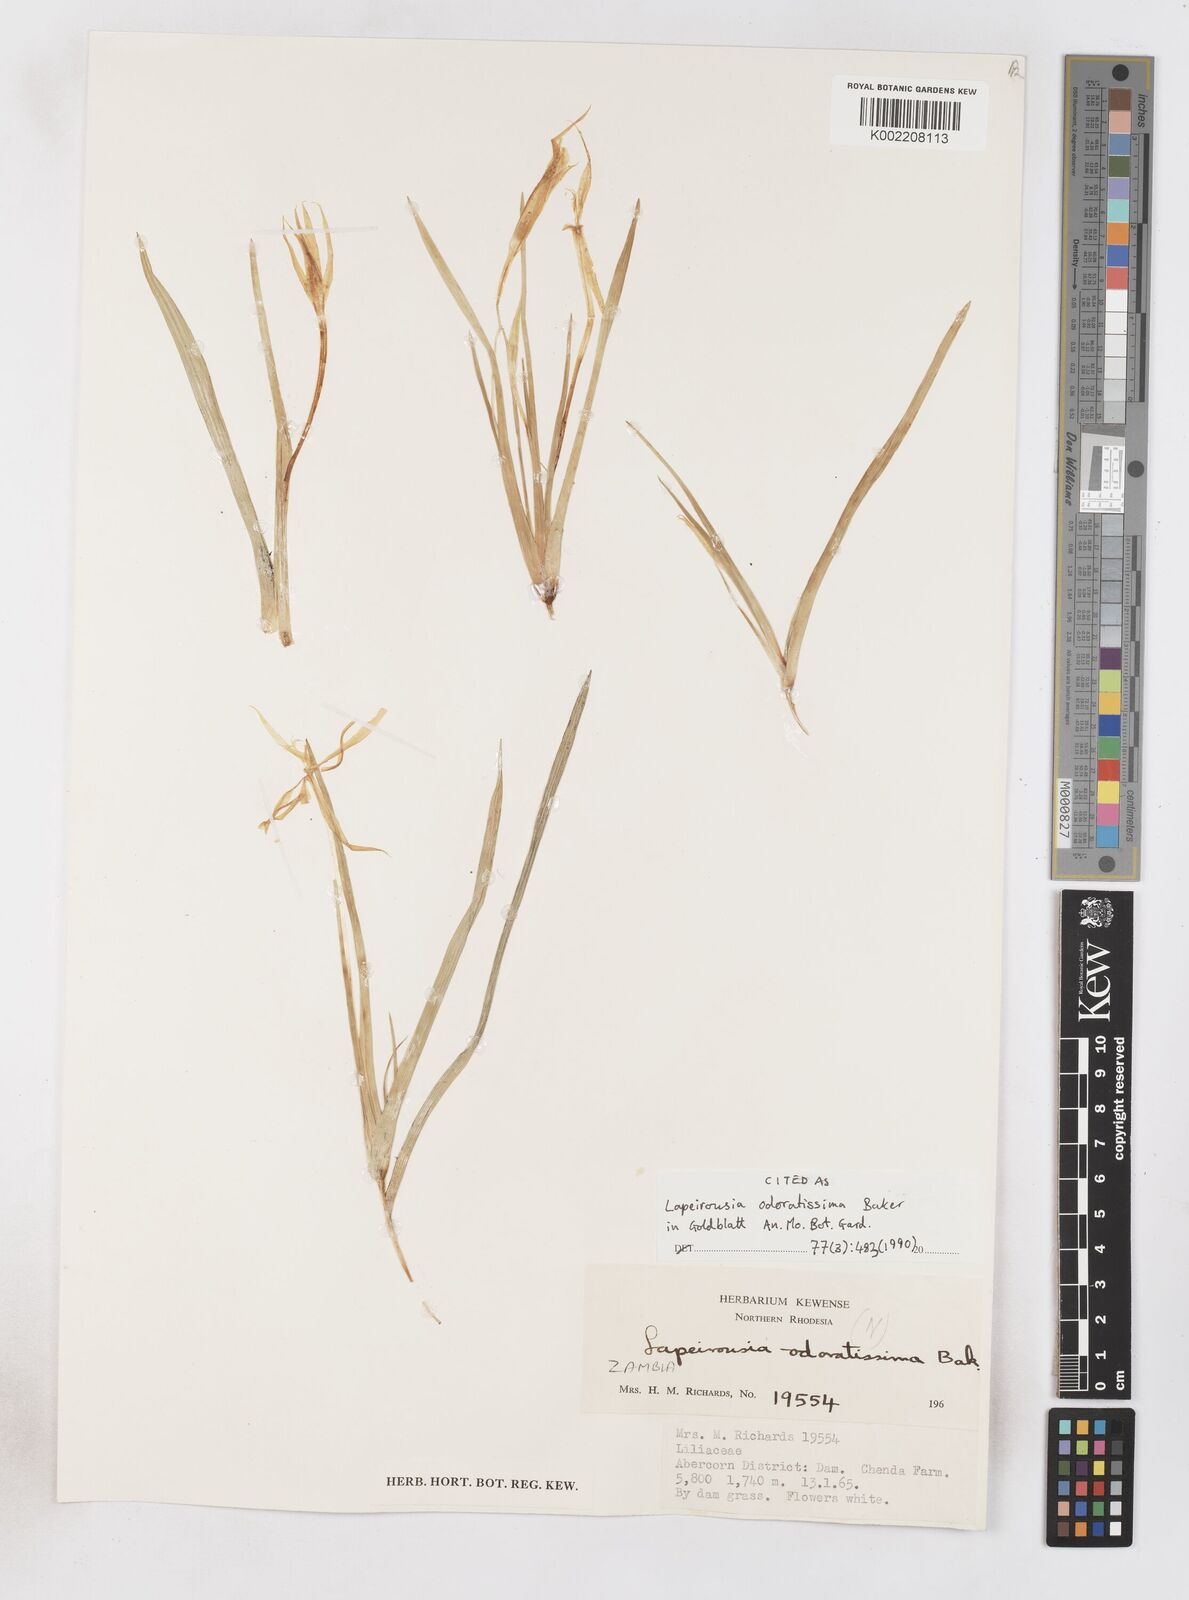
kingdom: Plantae
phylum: Tracheophyta
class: Liliopsida
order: Asparagales
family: Iridaceae
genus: Lapeirousia
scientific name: Lapeirousia odoratissima
